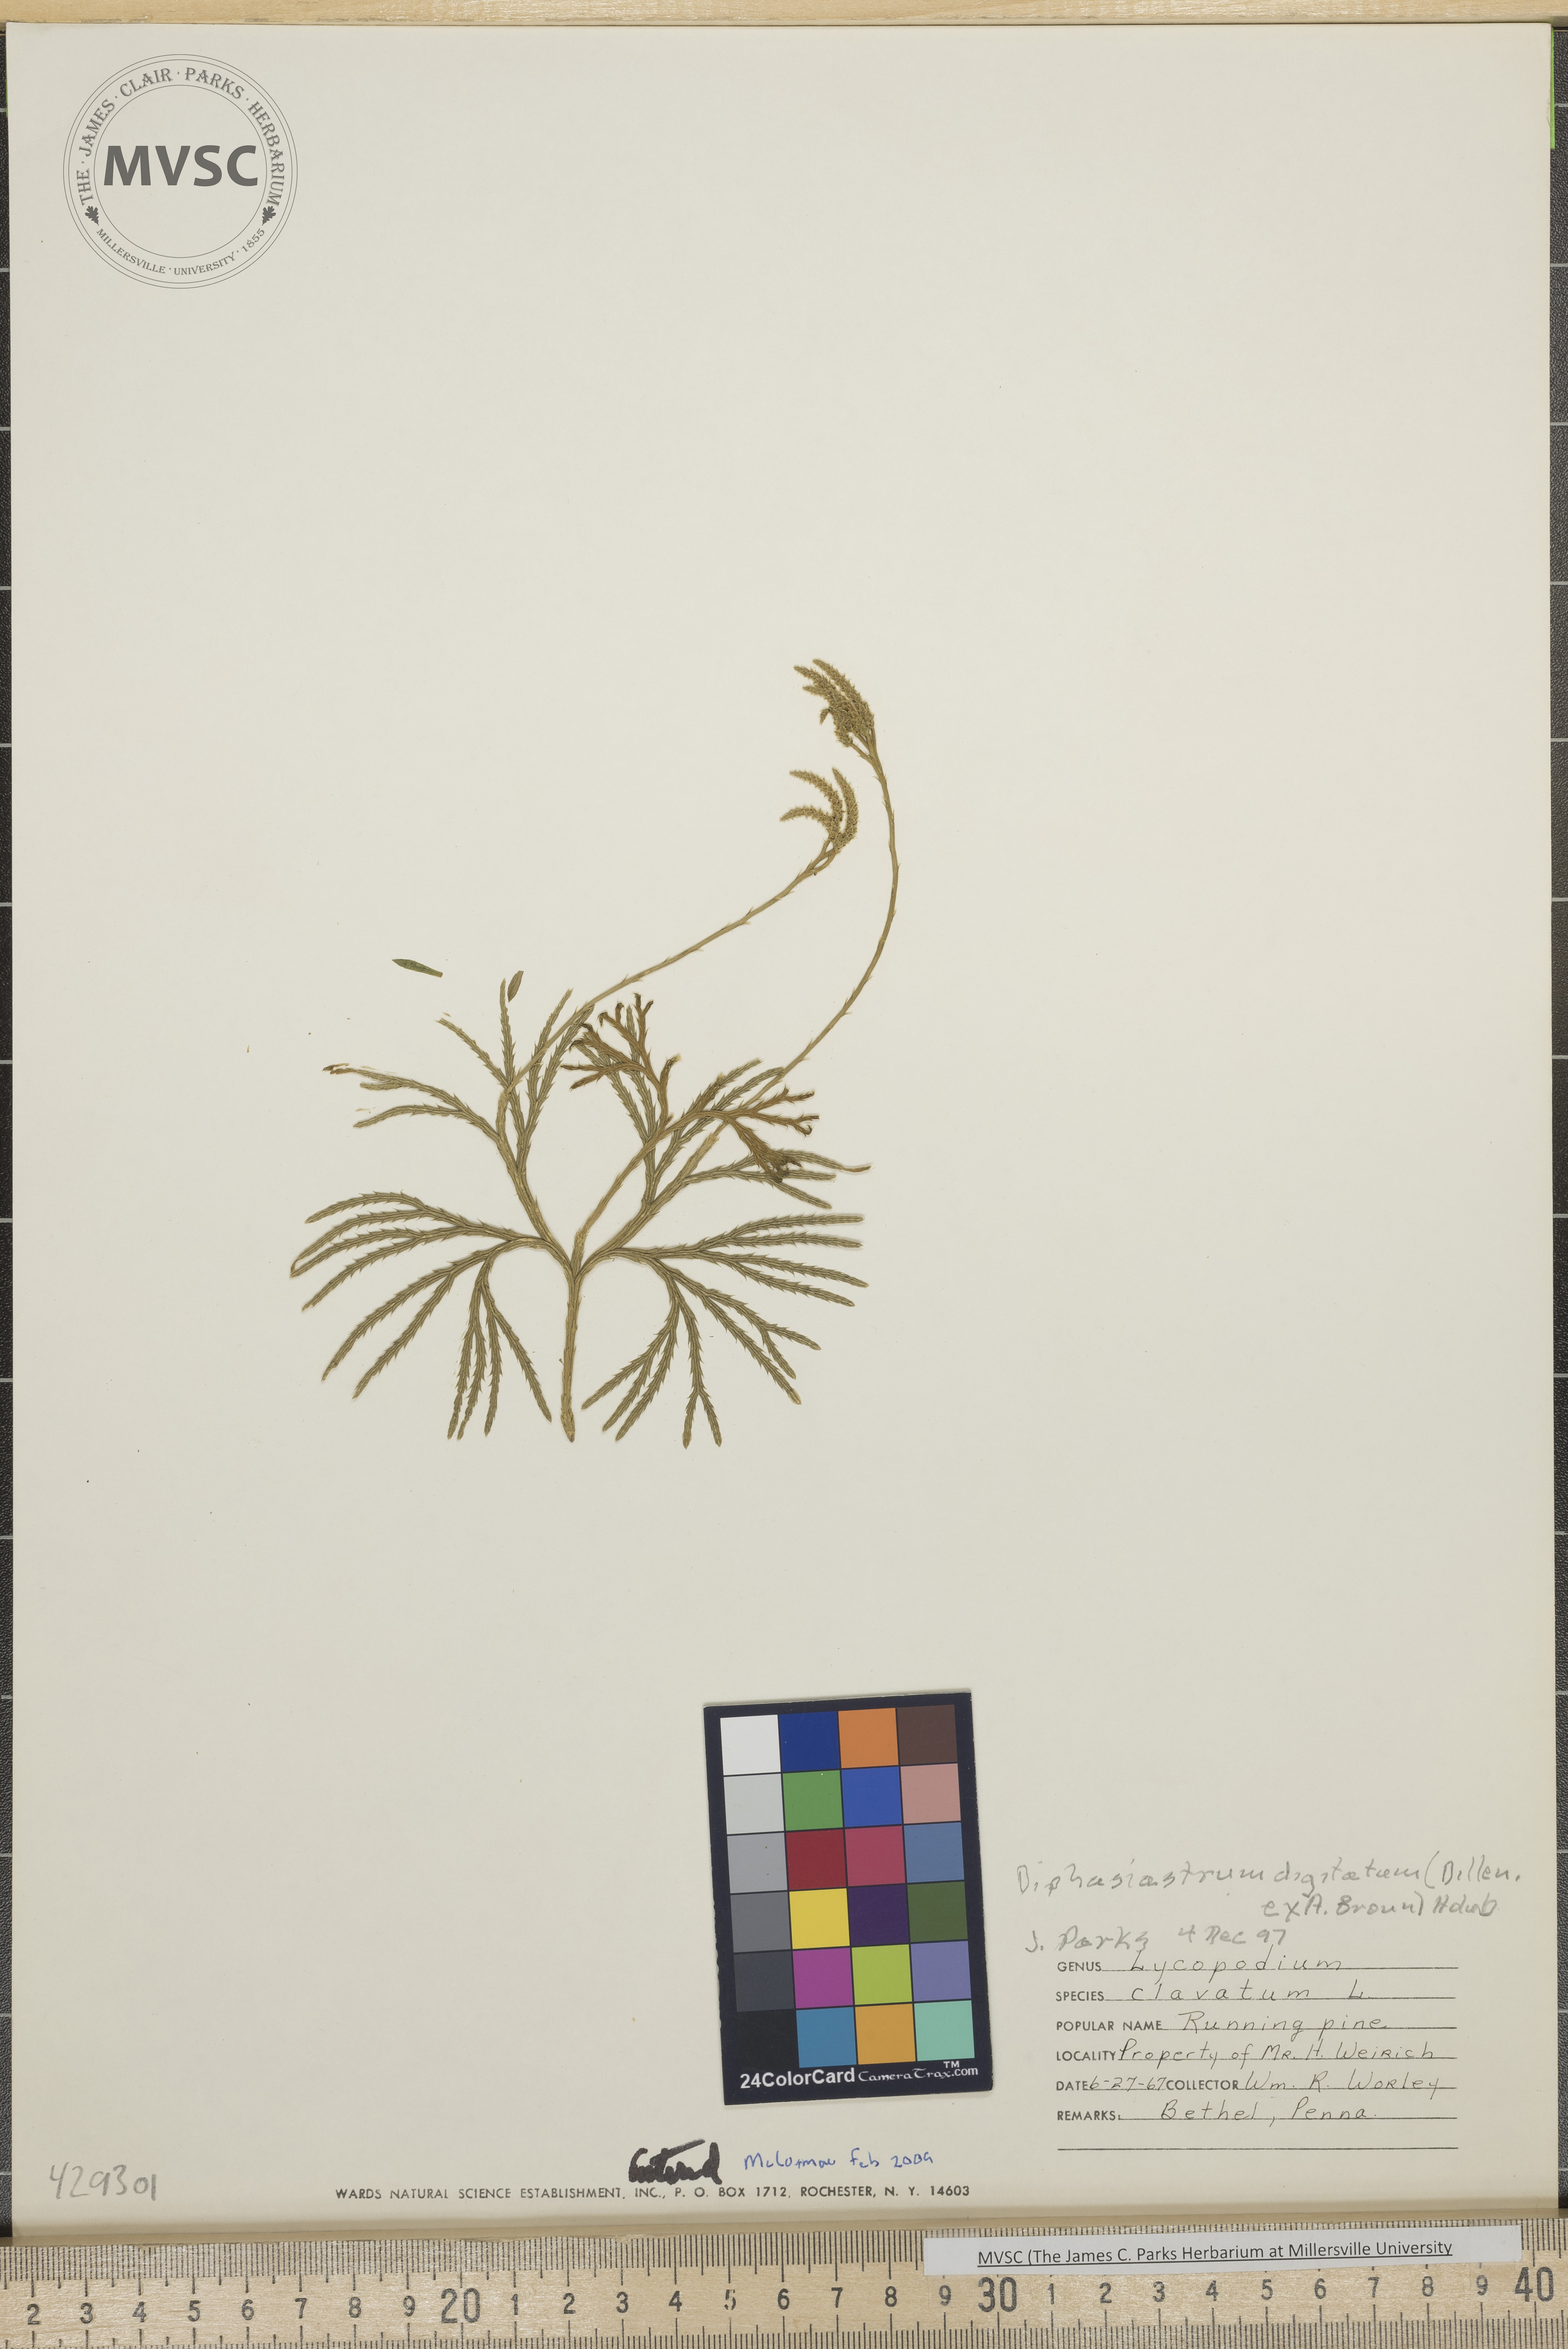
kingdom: Plantae
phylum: Tracheophyta
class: Lycopodiopsida
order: Lycopodiales
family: Lycopodiaceae
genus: Diphasiastrum
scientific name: Diphasiastrum digitatum
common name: Southern running-pine
